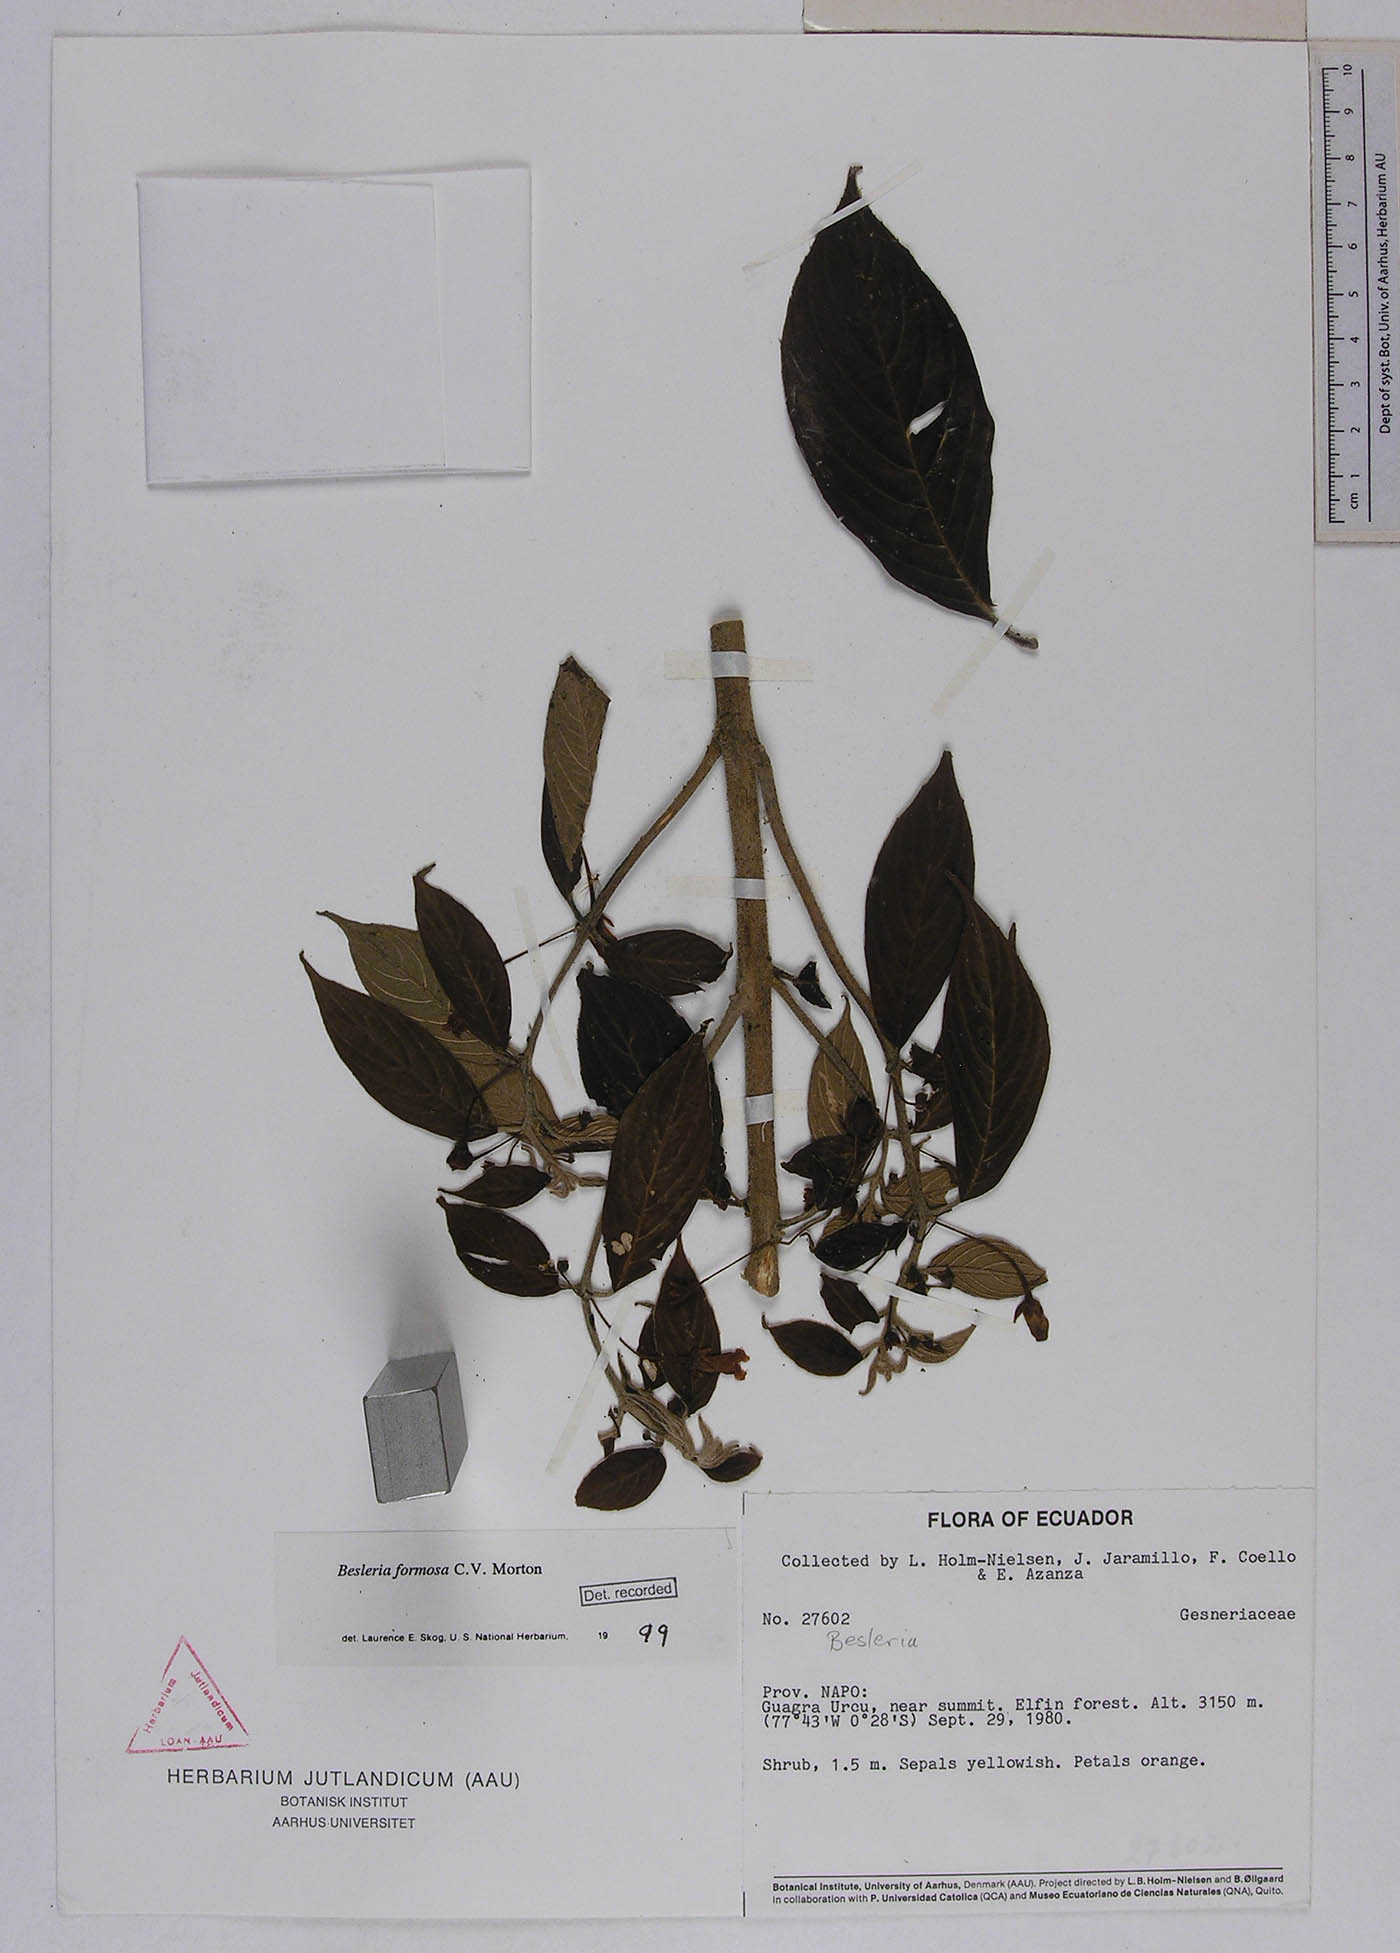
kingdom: Plantae
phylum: Tracheophyta
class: Magnoliopsida
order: Lamiales
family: Gesneriaceae
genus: Besleria
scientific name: Besleria amabilis
